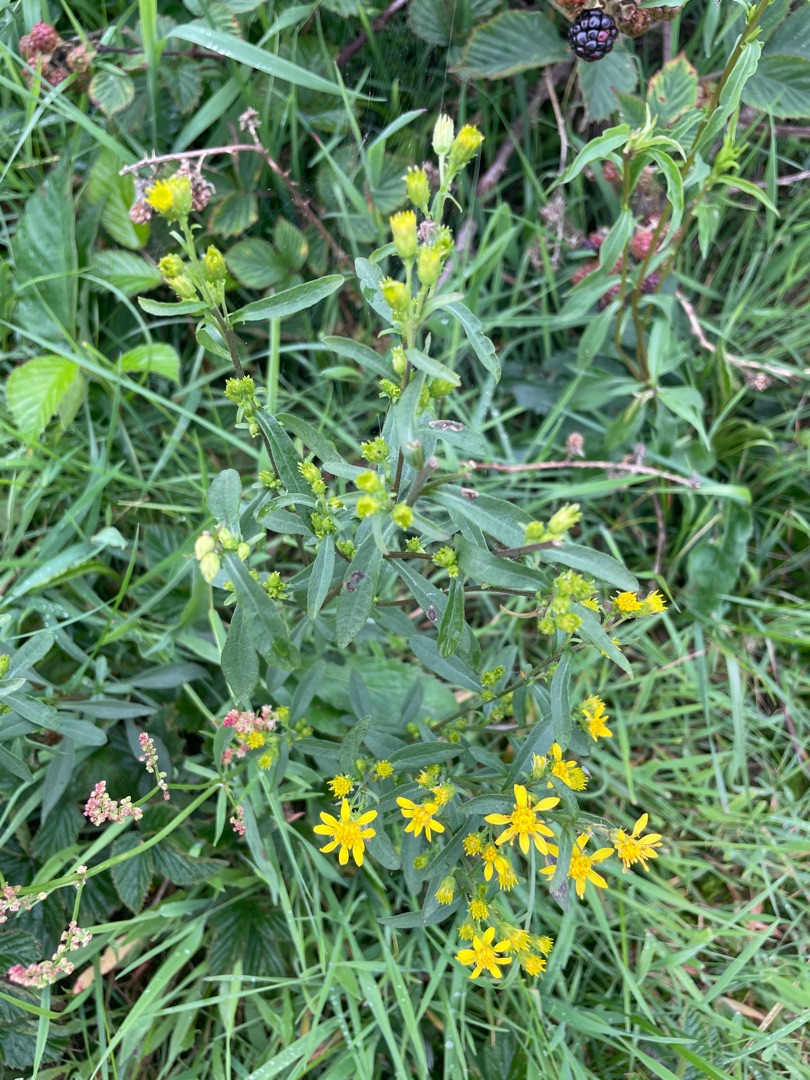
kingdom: Plantae
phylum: Tracheophyta
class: Magnoliopsida
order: Asterales
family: Asteraceae
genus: Solidago
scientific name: Solidago virgaurea
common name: Almindelig gyldenris
